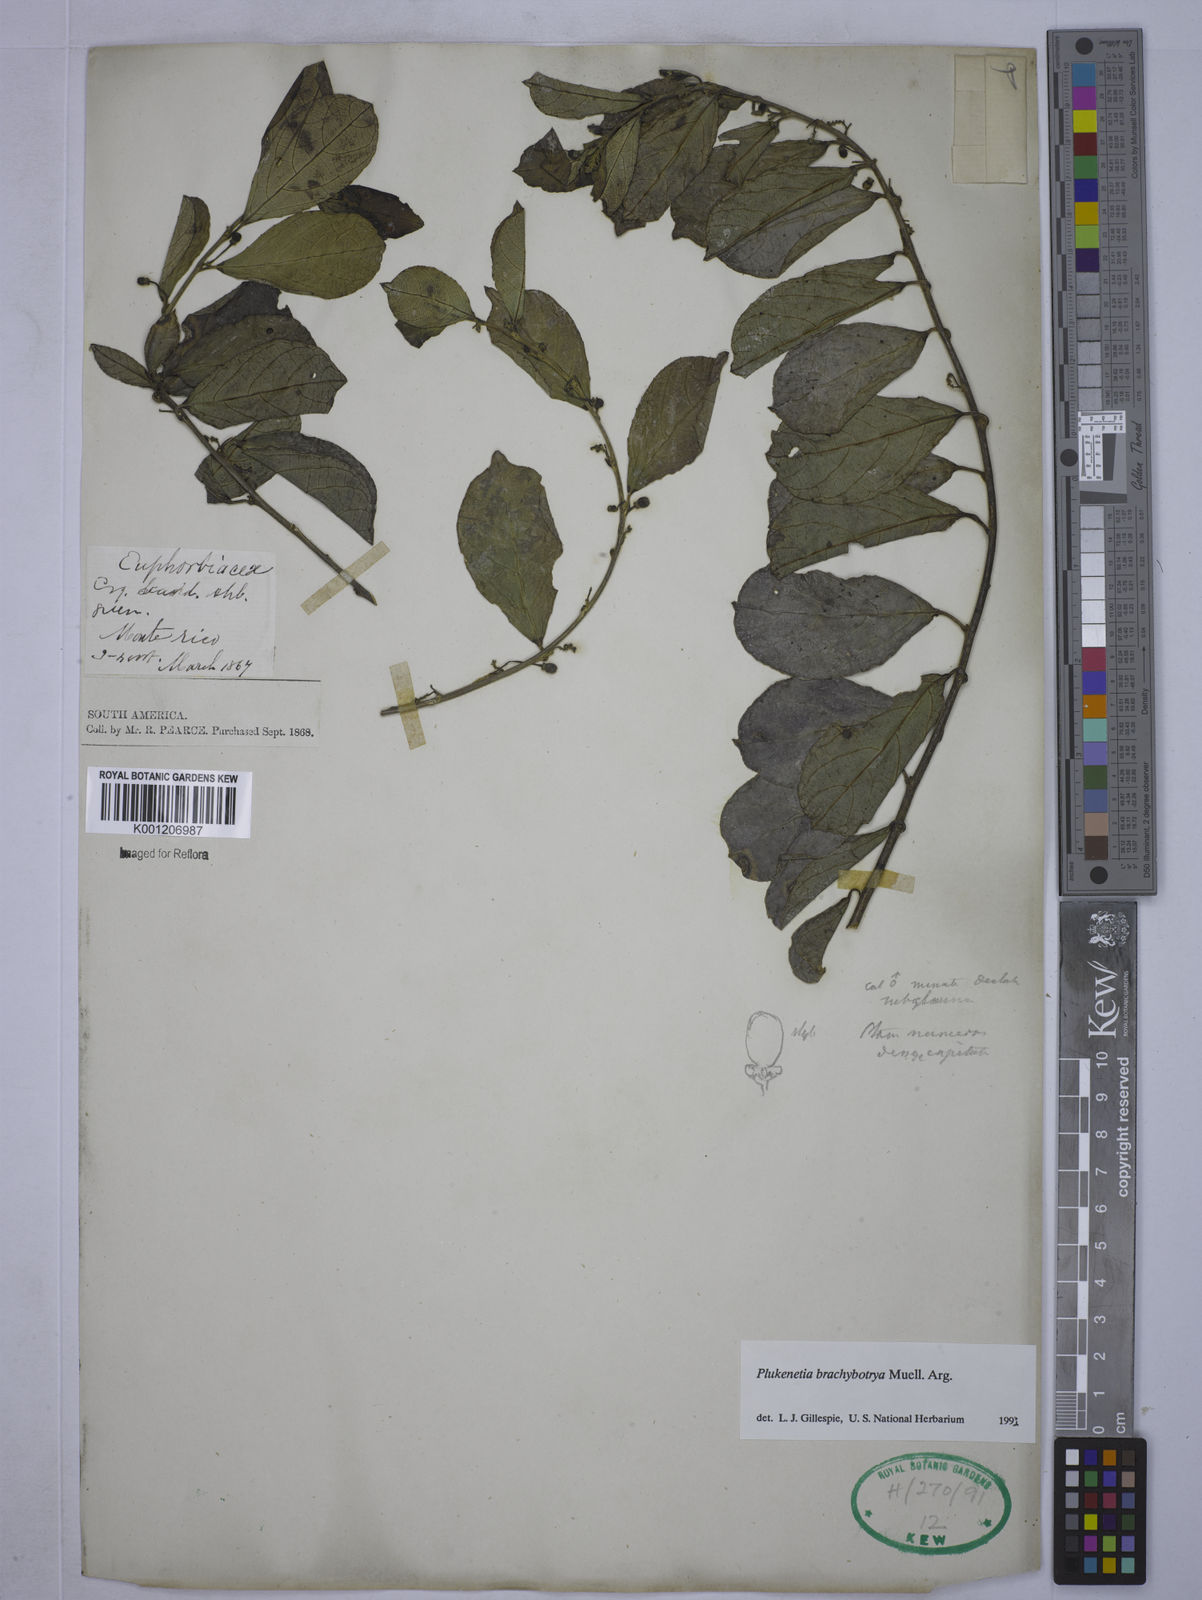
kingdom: Plantae
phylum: Tracheophyta
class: Magnoliopsida
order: Malpighiales
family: Euphorbiaceae
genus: Plukenetia
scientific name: Plukenetia
